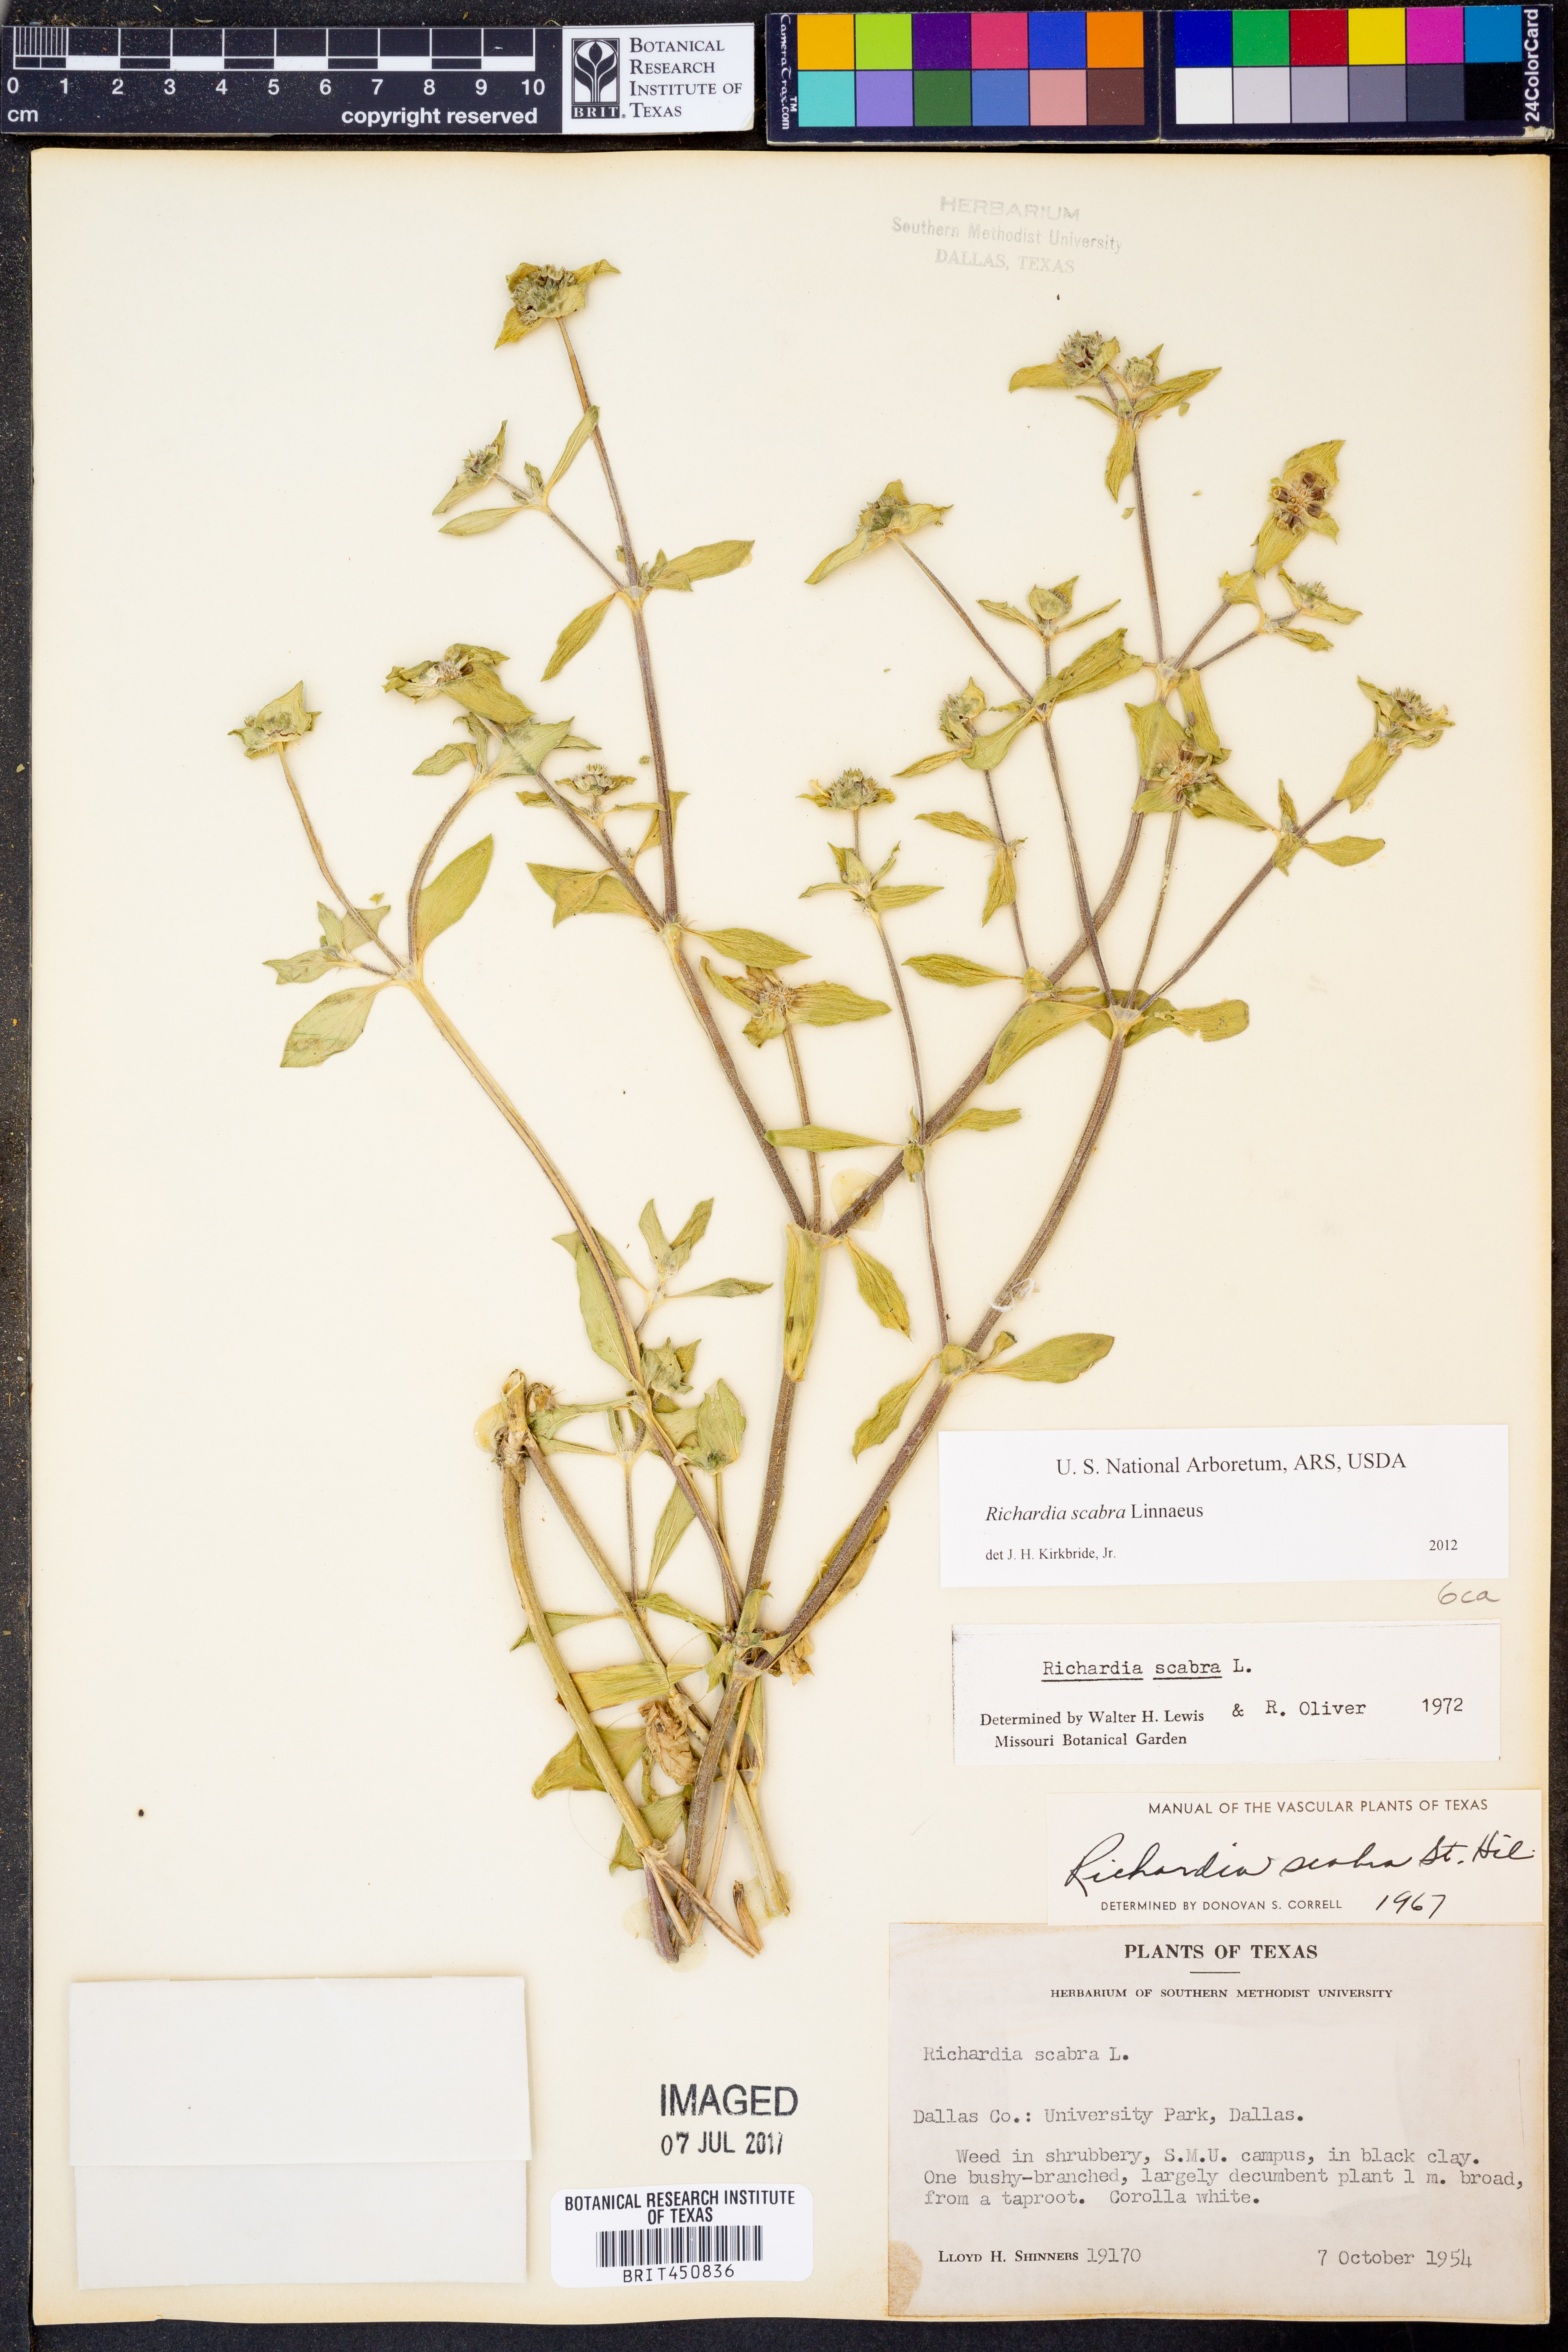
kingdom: Plantae
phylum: Tracheophyta
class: Magnoliopsida
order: Gentianales
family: Rubiaceae
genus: Richardia
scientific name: Richardia scabra
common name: Rough mexican clover
